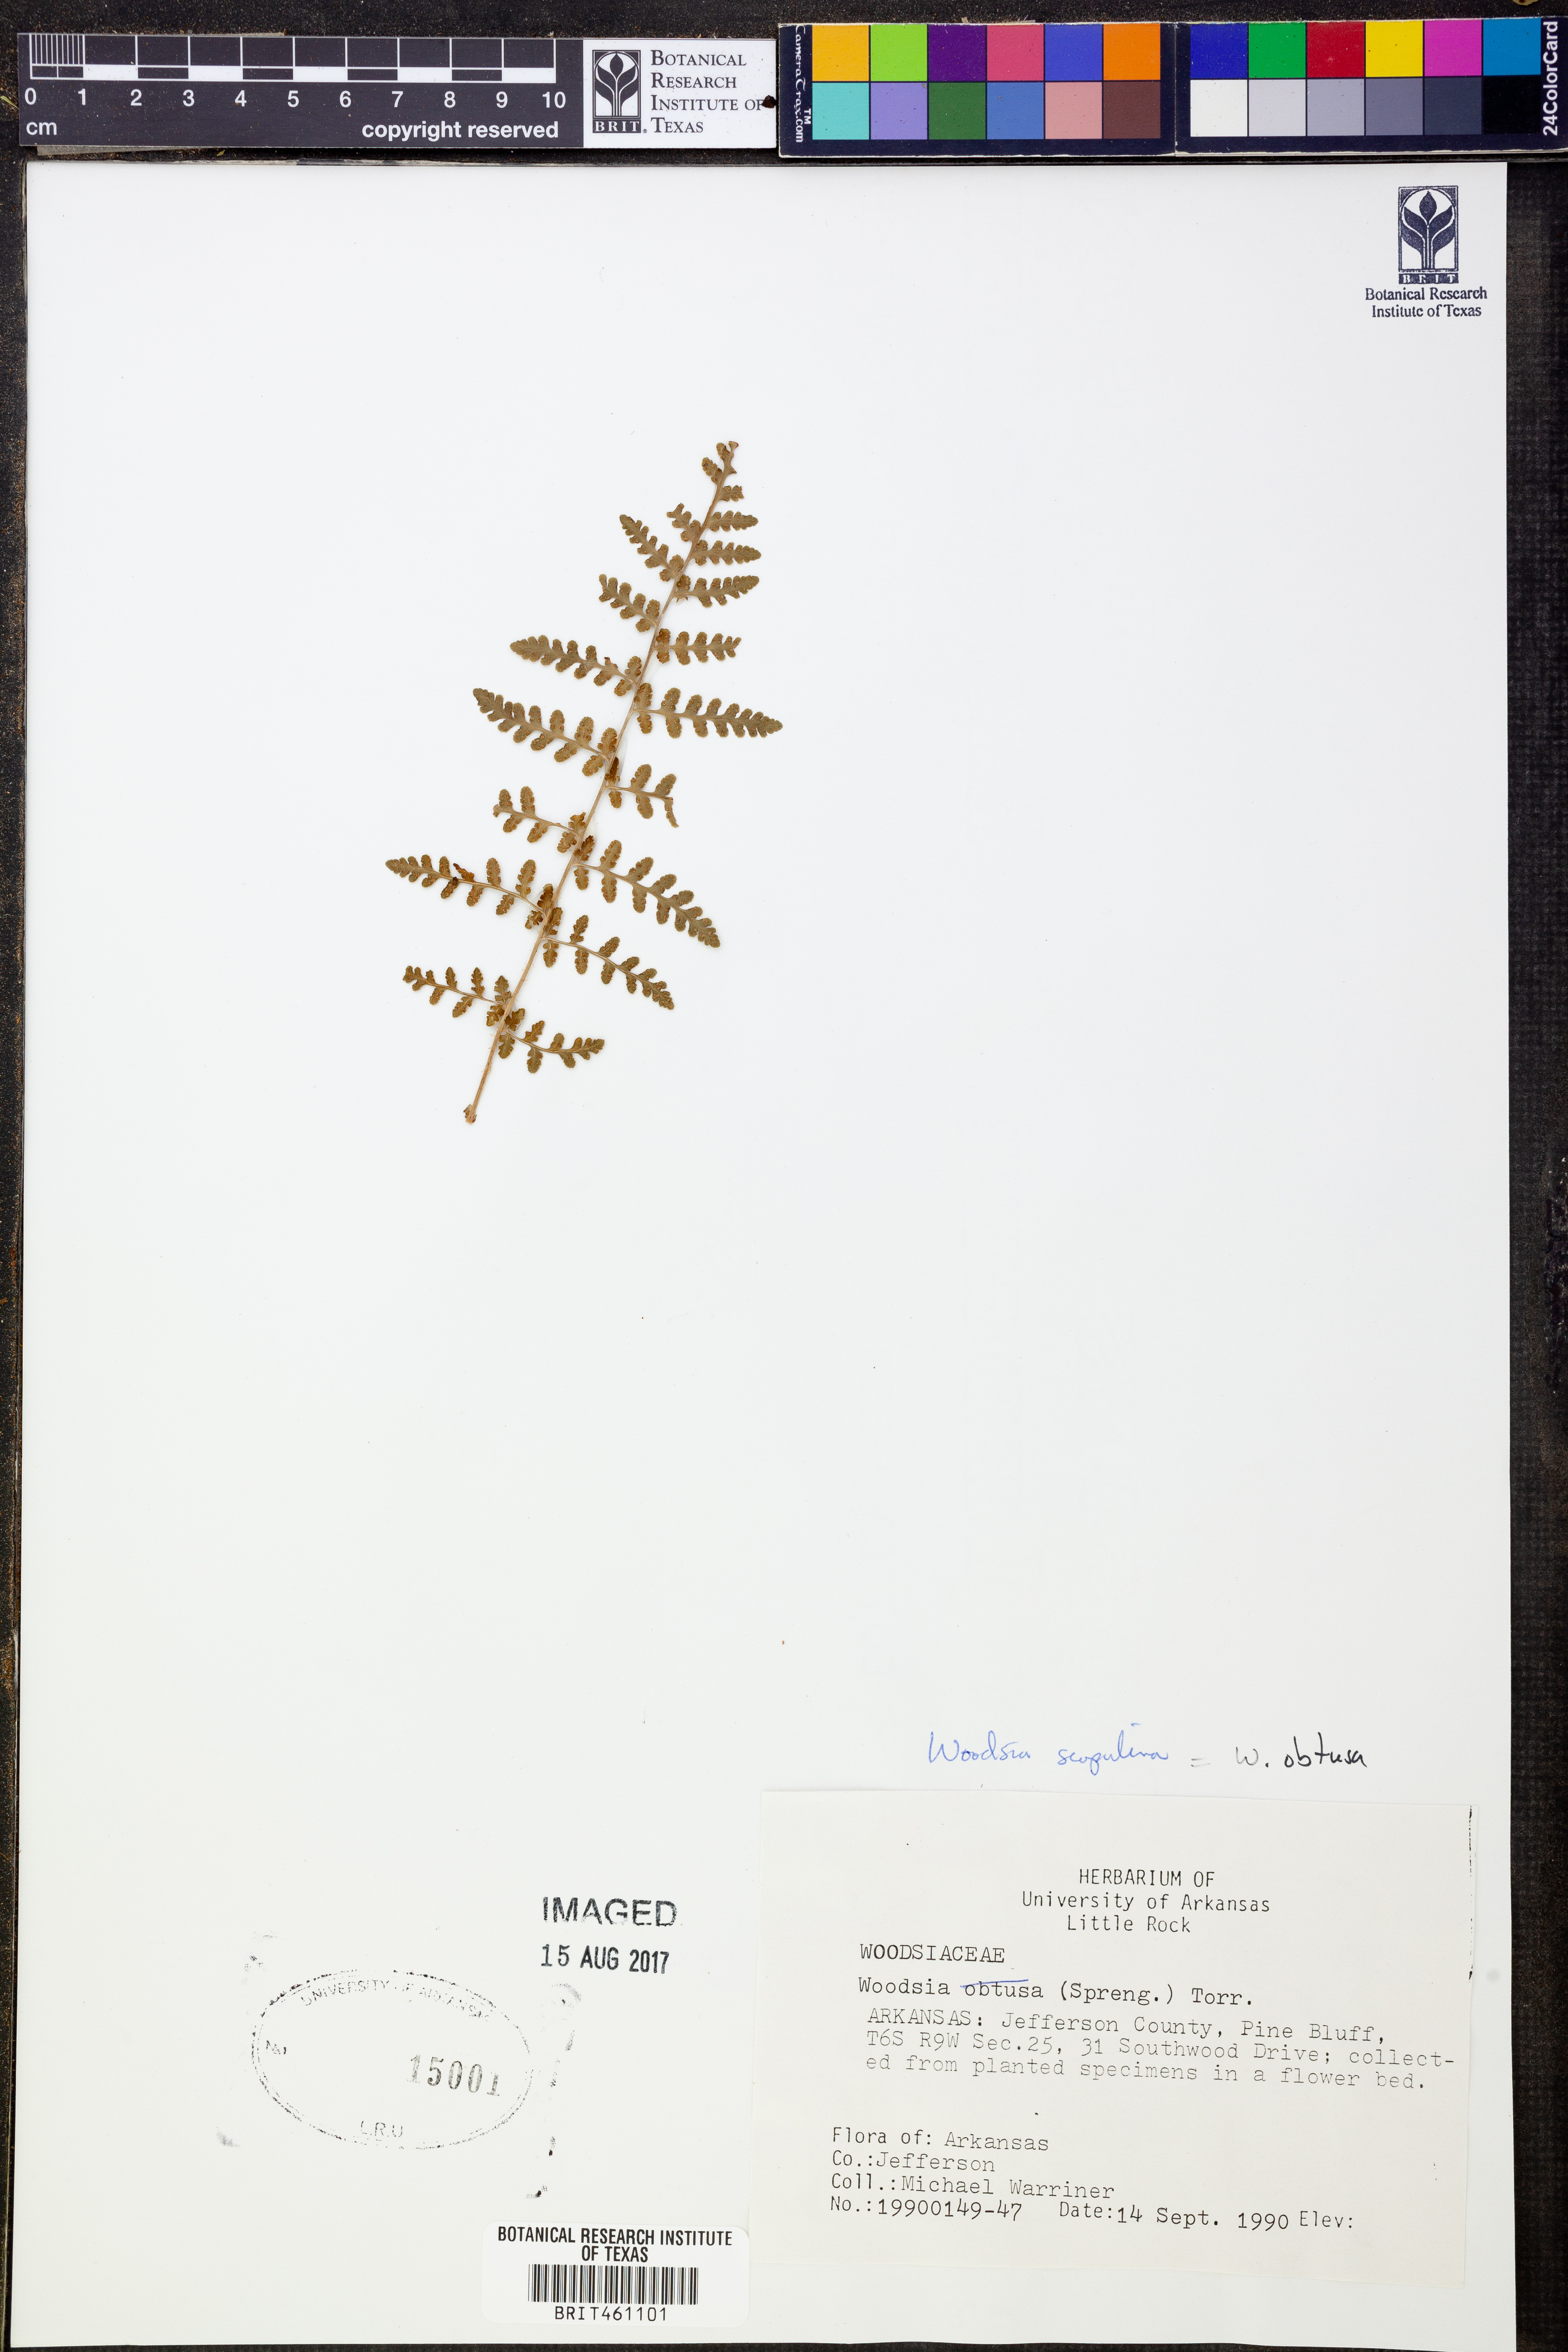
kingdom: Plantae
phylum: Tracheophyta
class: Polypodiopsida
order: Polypodiales
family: Woodsiaceae
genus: Physematium
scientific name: Physematium scopulinum
